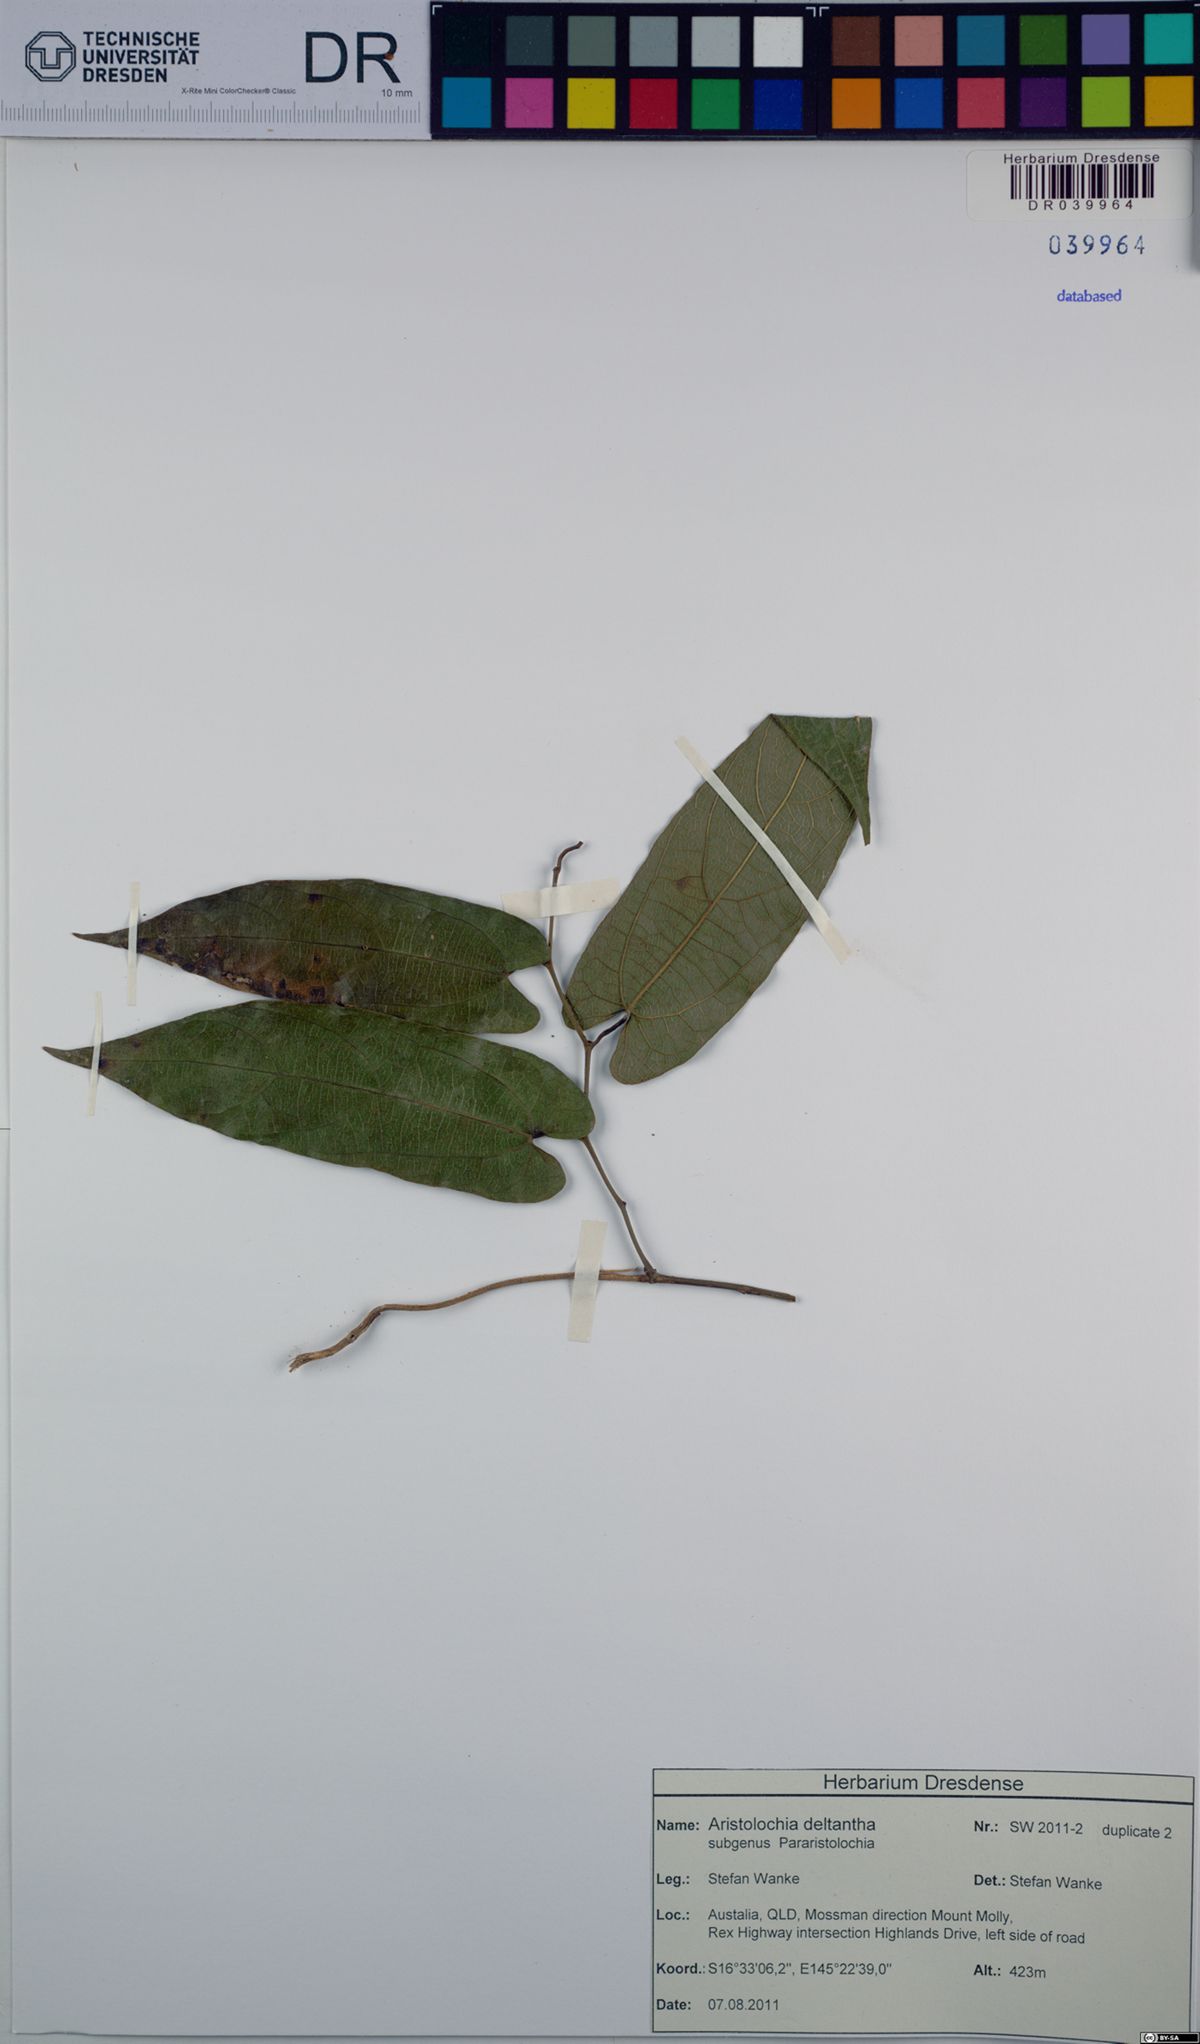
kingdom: Plantae
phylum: Tracheophyta
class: Magnoliopsida
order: Piperales
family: Aristolochiaceae
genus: Aristolochia
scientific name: Aristolochia deltantha
